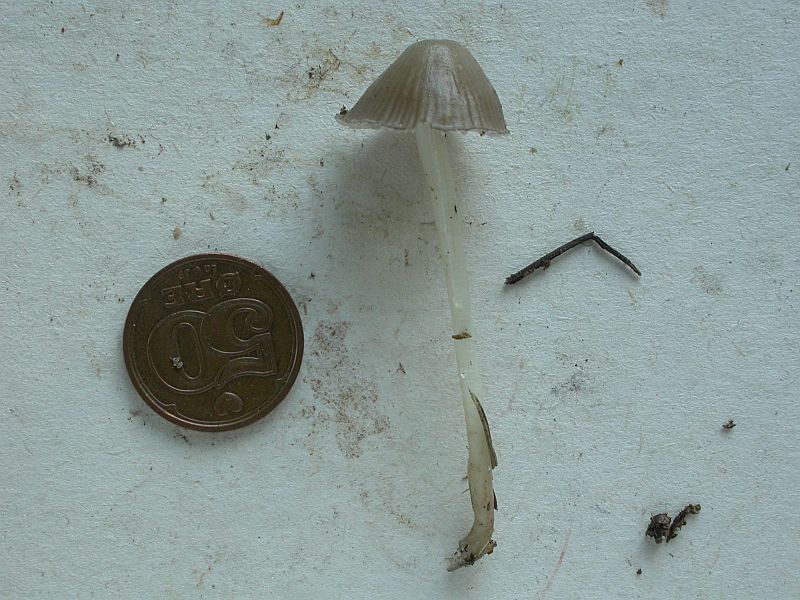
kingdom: Fungi
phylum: Basidiomycota
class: Agaricomycetes
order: Agaricales
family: Mycenaceae
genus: Mycena
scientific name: Mycena epipterygia
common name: Yellowleg bonnet
